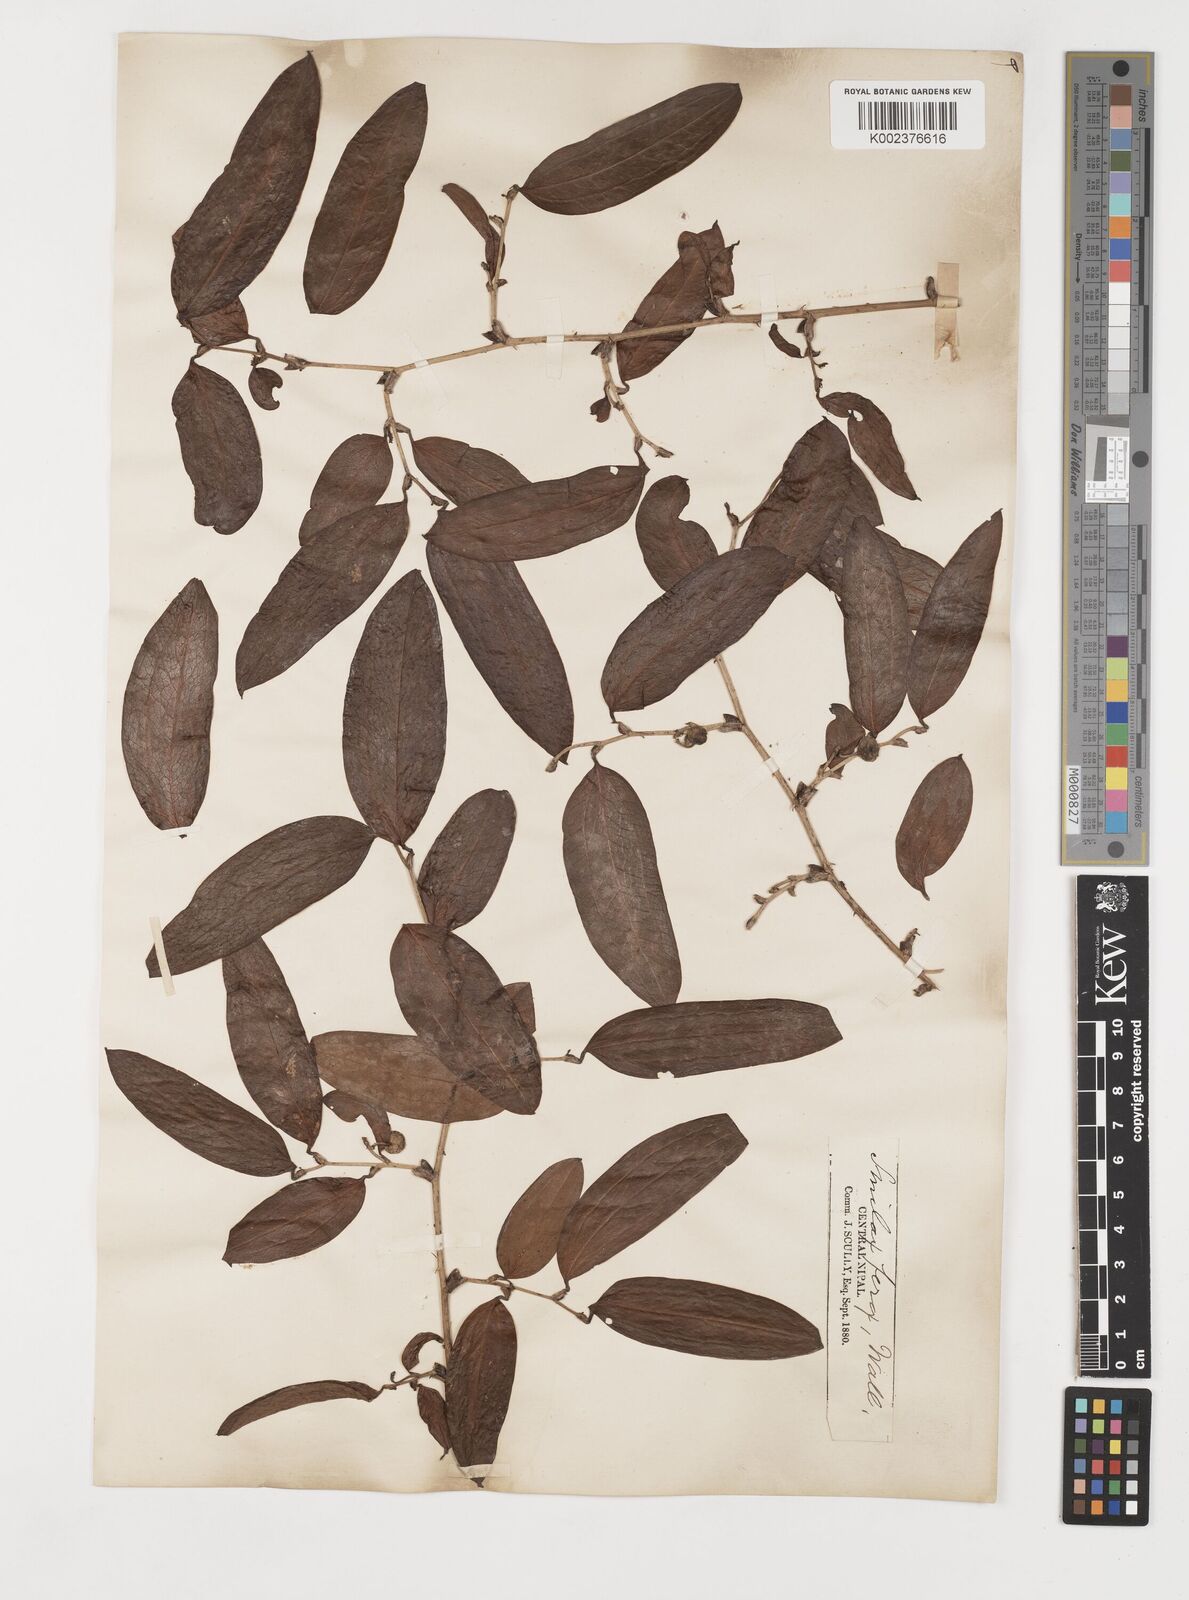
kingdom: Plantae
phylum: Tracheophyta
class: Liliopsida
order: Liliales
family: Smilacaceae
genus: Smilax
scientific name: Smilax ferox
